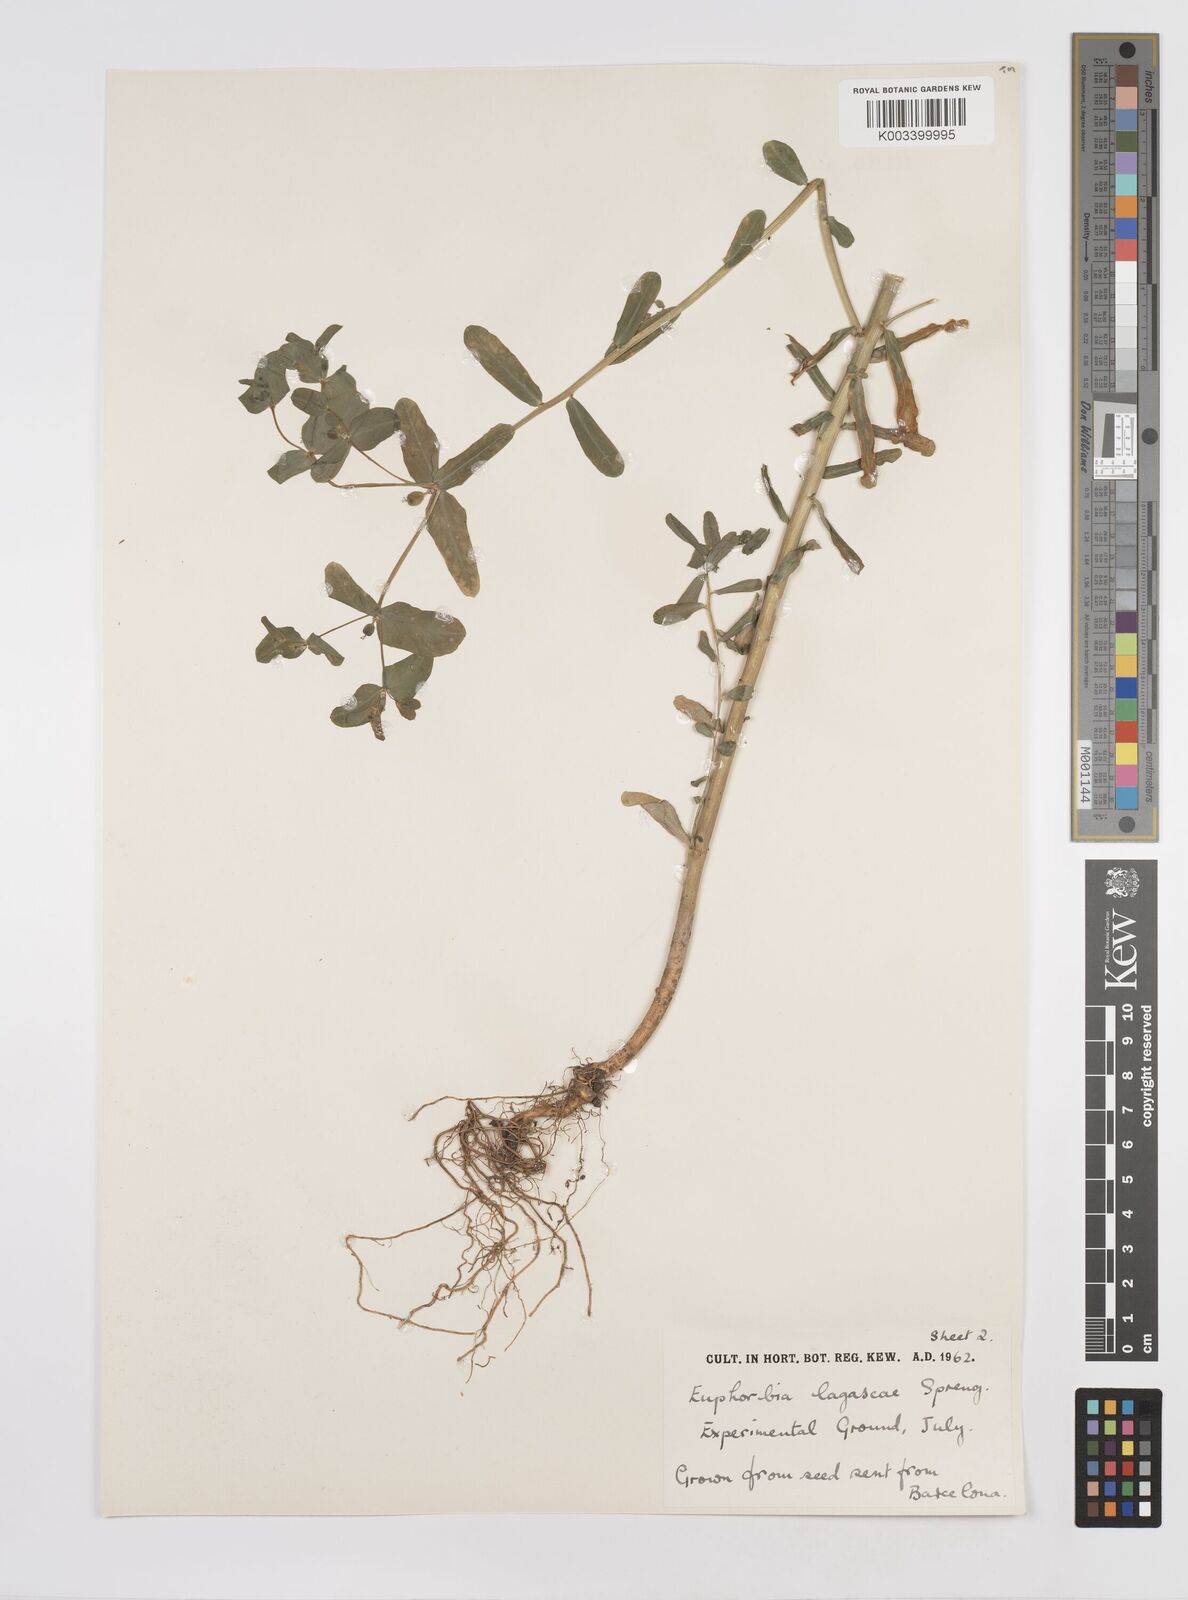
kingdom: Plantae
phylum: Tracheophyta
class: Magnoliopsida
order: Malpighiales
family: Euphorbiaceae
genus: Euphorbia
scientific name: Euphorbia
